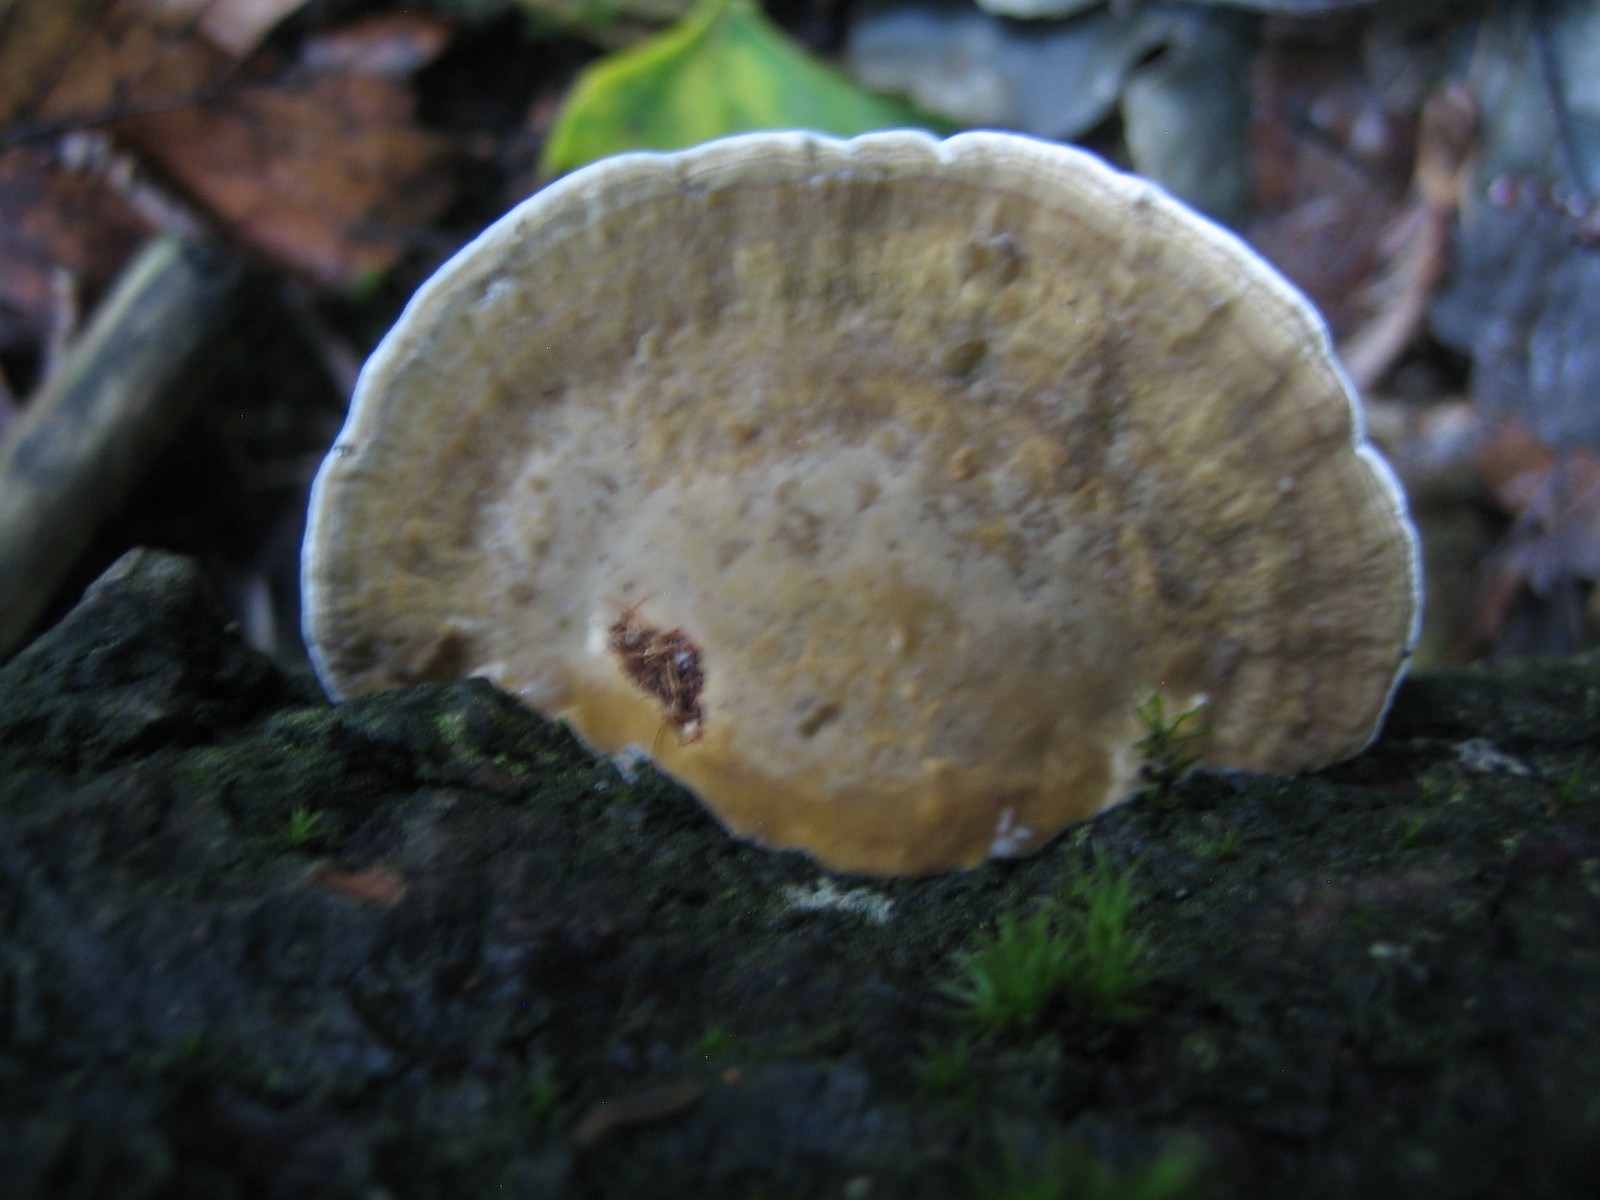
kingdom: Fungi
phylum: Basidiomycota
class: Agaricomycetes
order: Polyporales
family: Polyporaceae
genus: Daedaleopsis
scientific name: Daedaleopsis confragosa
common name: rødmende læderporesvamp
